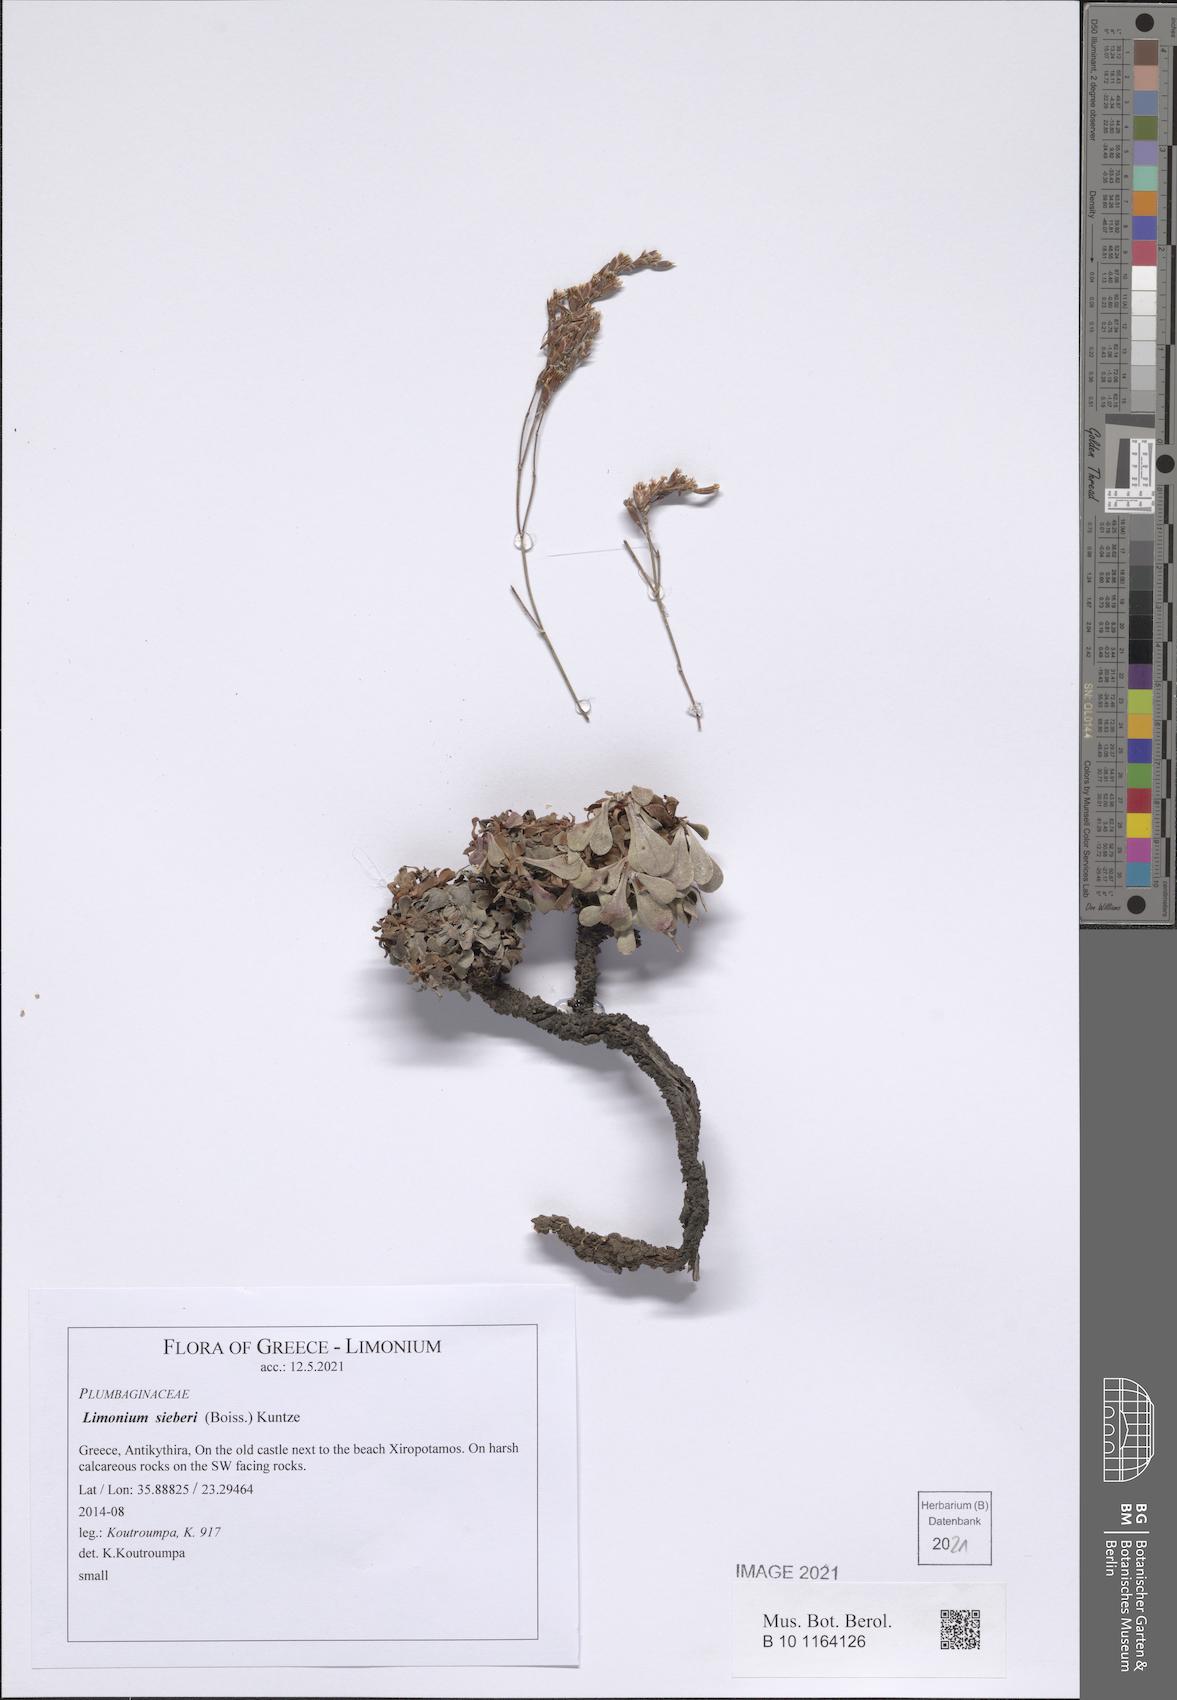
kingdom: Plantae
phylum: Tracheophyta
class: Magnoliopsida
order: Caryophyllales
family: Plumbaginaceae
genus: Limonium
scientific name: Limonium sieberi
